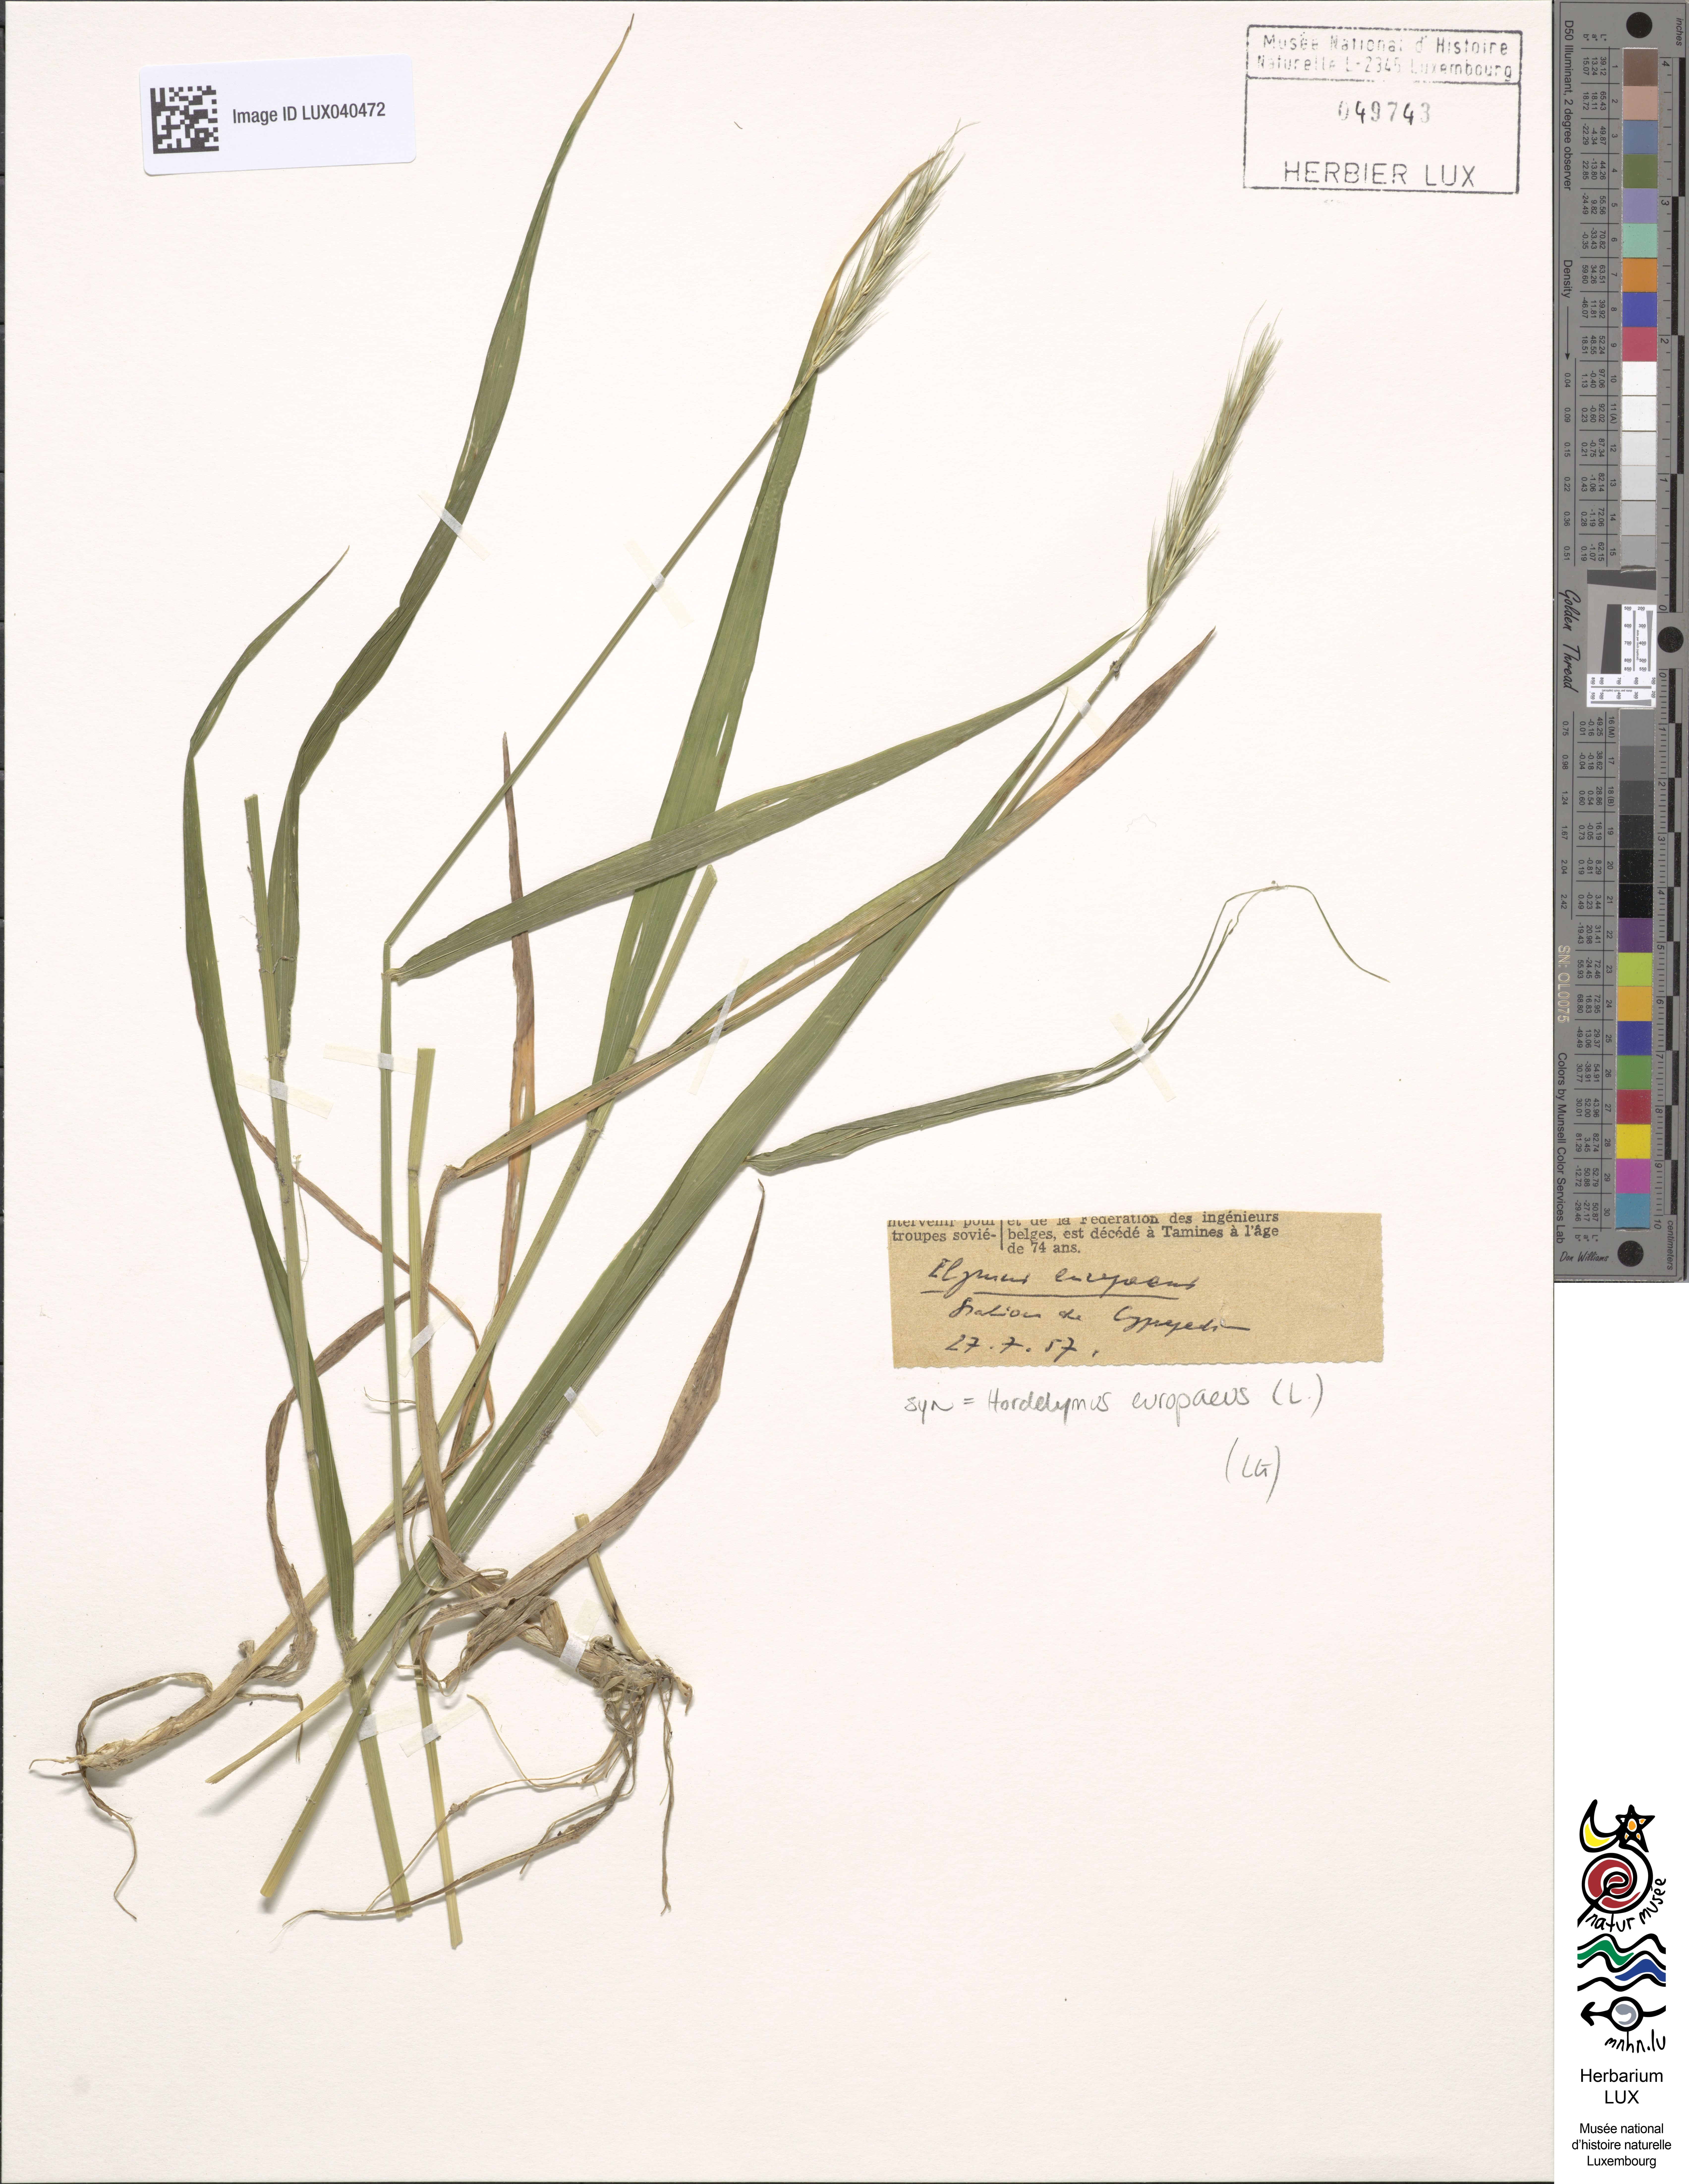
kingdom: Plantae
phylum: Tracheophyta
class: Liliopsida
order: Poales
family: Poaceae
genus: Hordelymus
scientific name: Hordelymus europaeus
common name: Wood-barley
